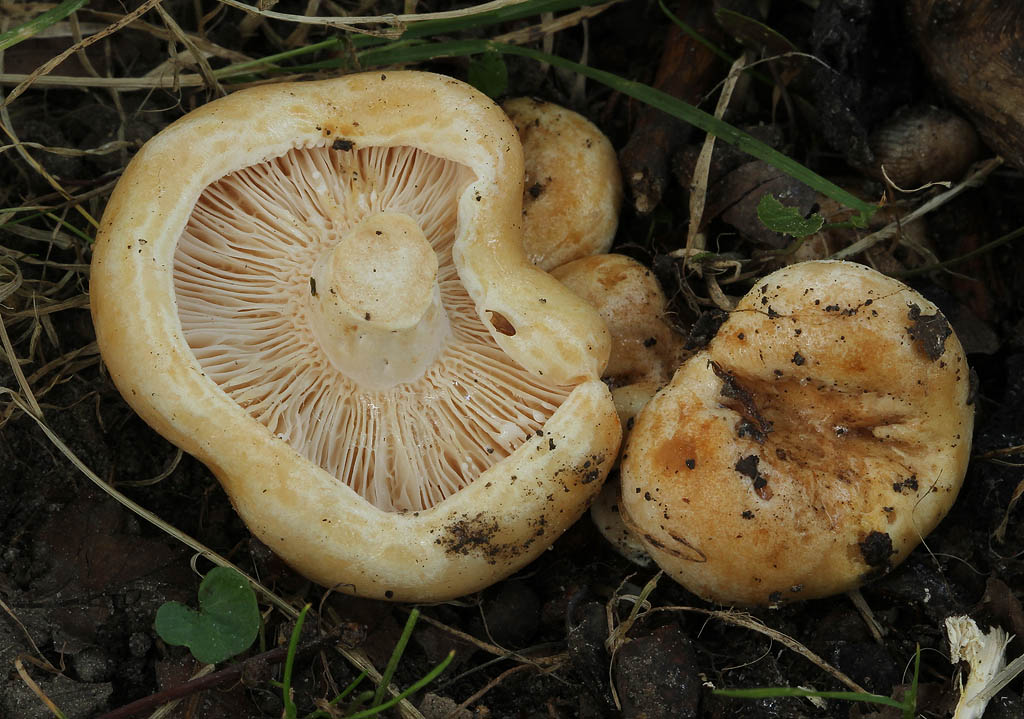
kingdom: Fungi
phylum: Basidiomycota
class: Agaricomycetes
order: Russulales
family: Russulaceae
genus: Lactarius
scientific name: Lactarius acerrimus
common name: brændende mælkehat
